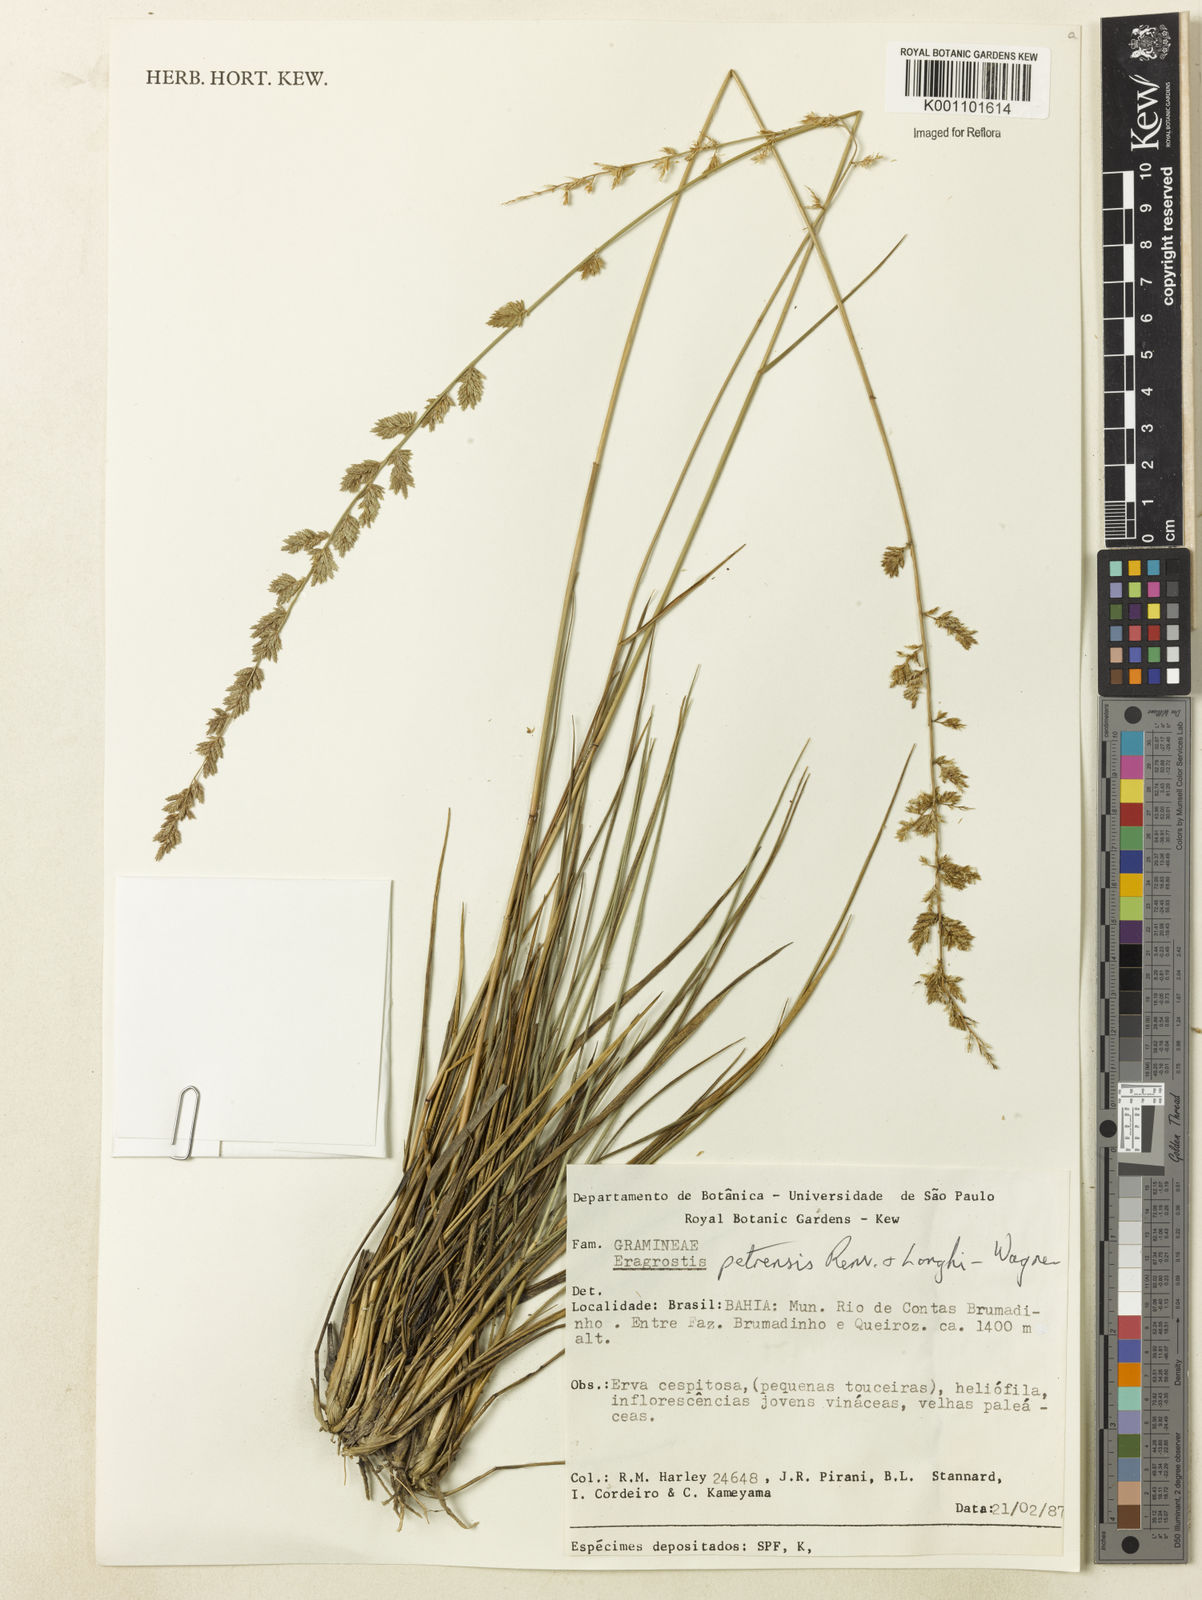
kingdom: Plantae
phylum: Tracheophyta
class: Liliopsida
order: Poales
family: Poaceae
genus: Eragrostis
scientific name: Eragrostis petrensis
